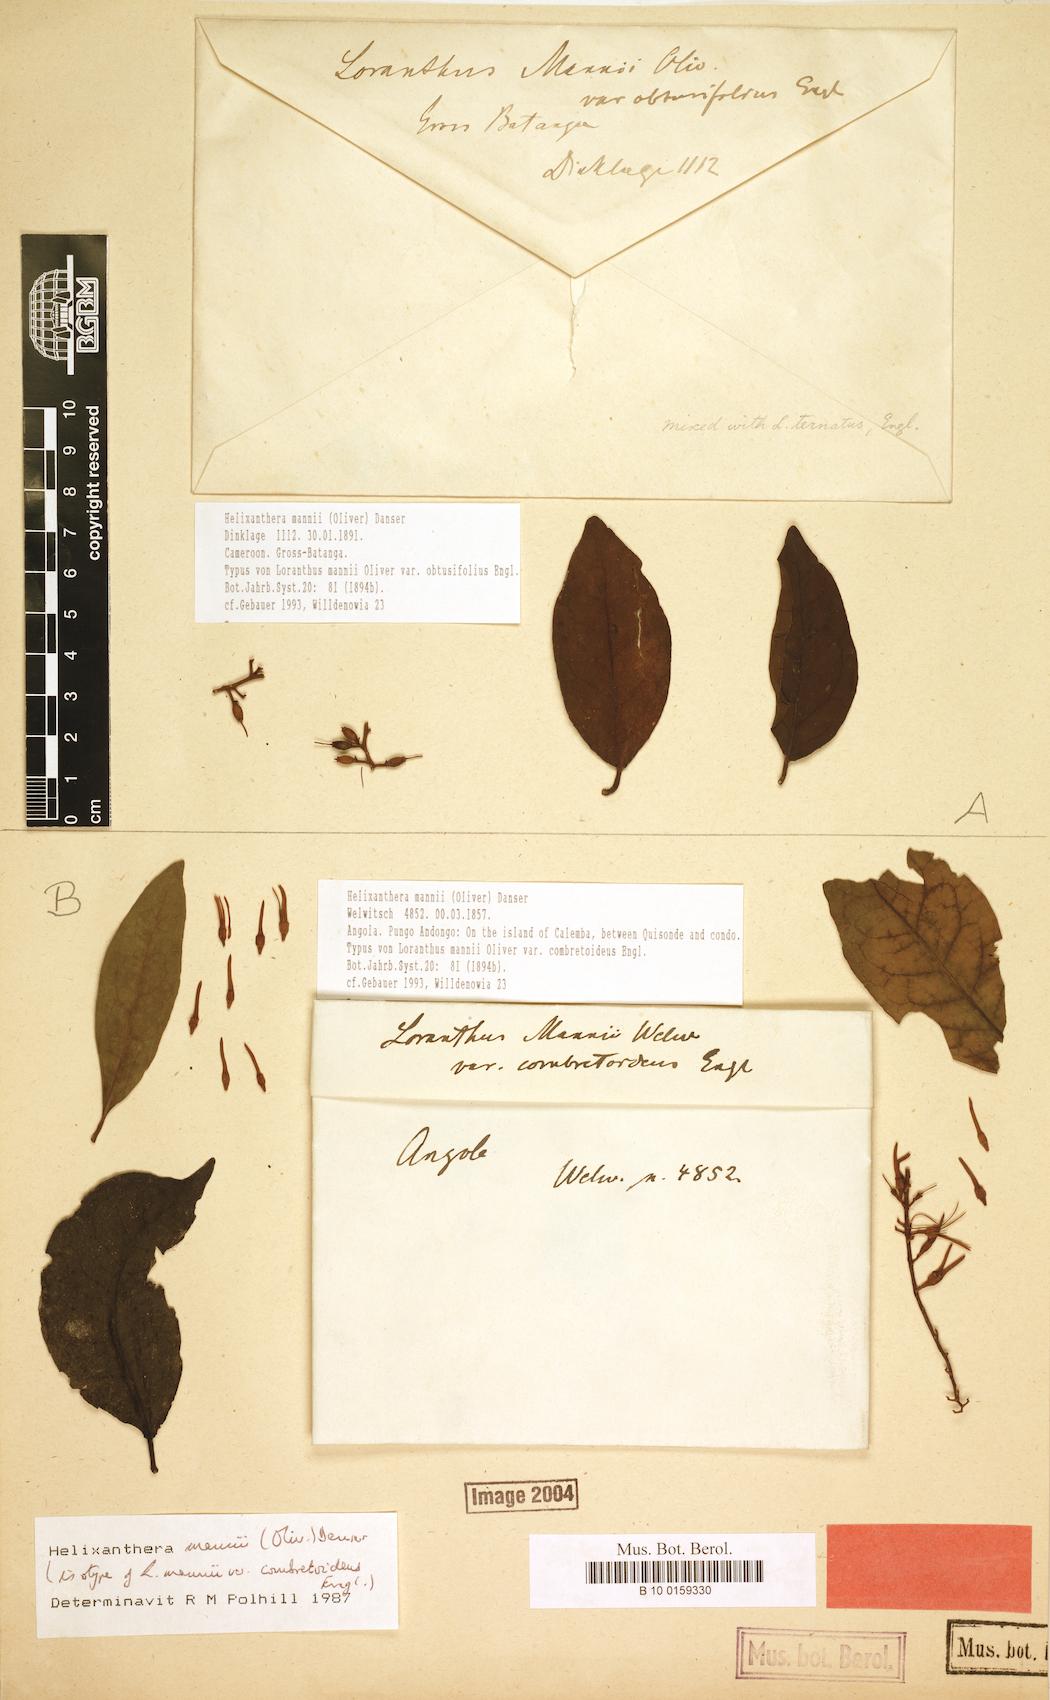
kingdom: Plantae
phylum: Tracheophyta
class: Magnoliopsida
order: Santalales
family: Loranthaceae
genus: Helixanthera
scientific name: Helixanthera mannii
